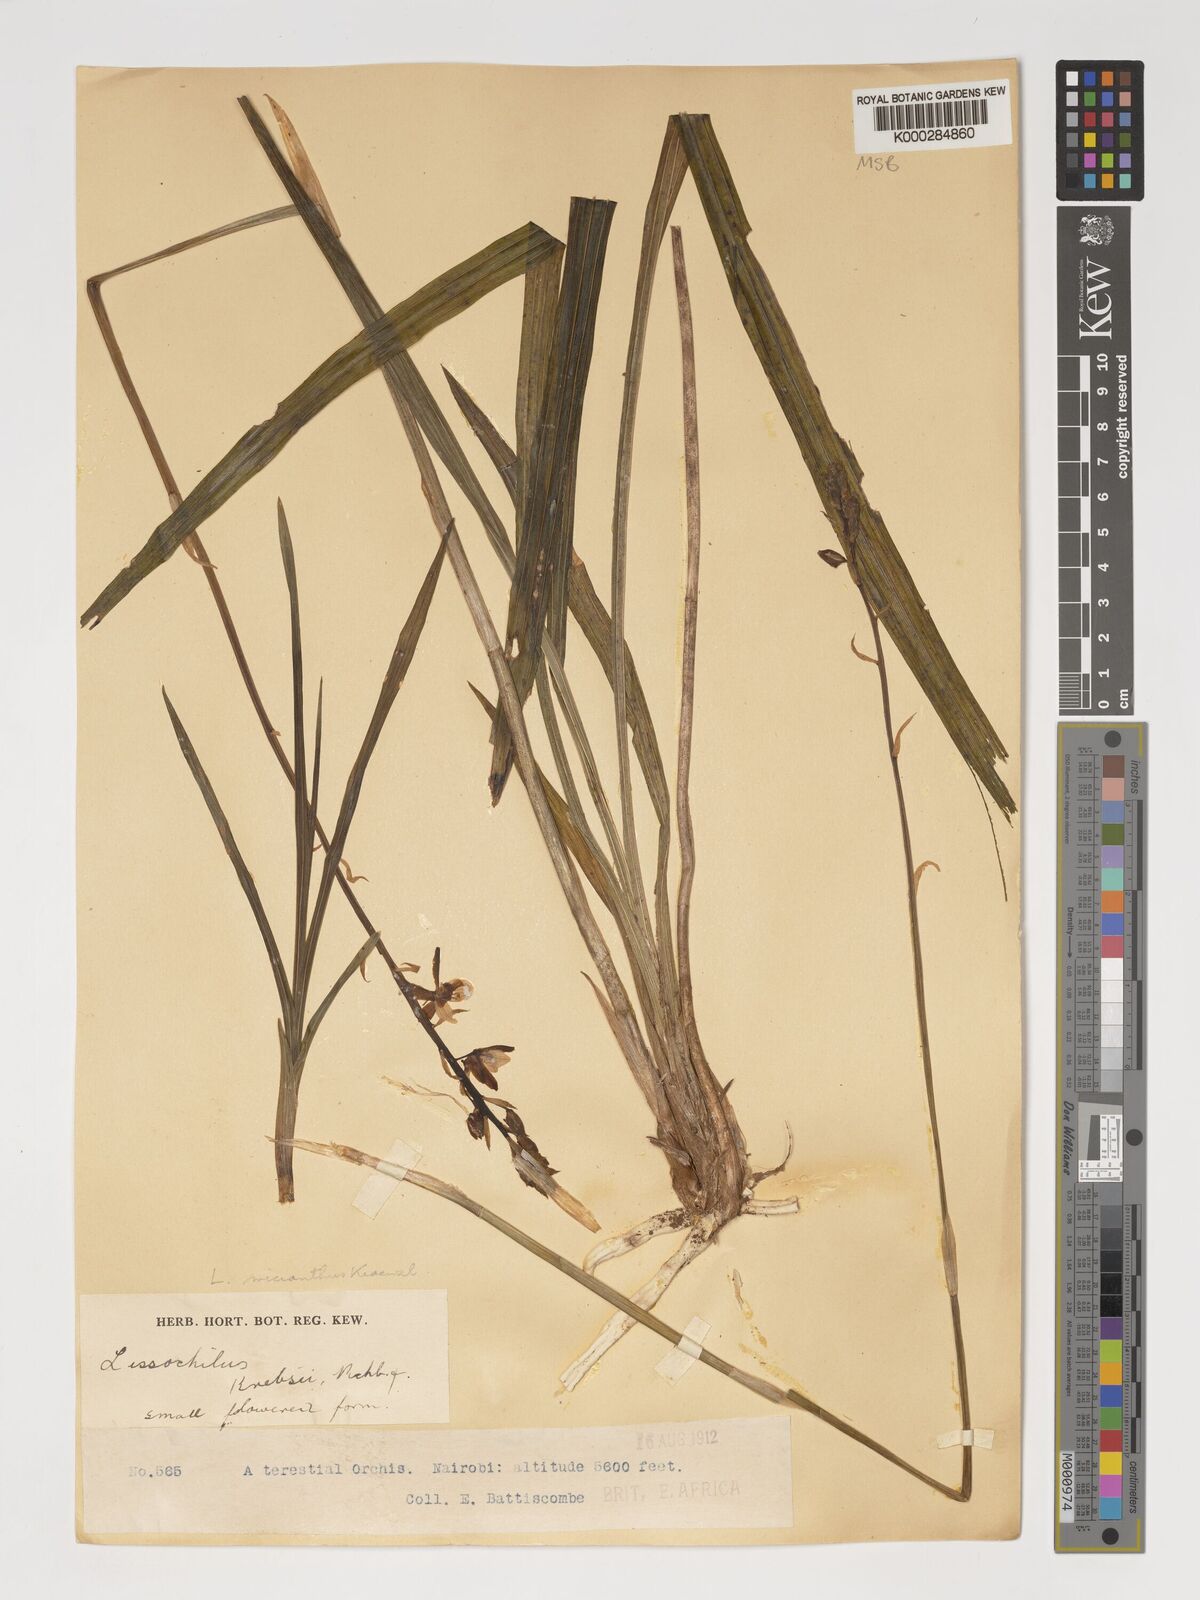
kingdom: Plantae
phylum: Tracheophyta
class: Liliopsida
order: Asparagales
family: Orchidaceae
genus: Eulophia
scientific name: Eulophia streptopetala
